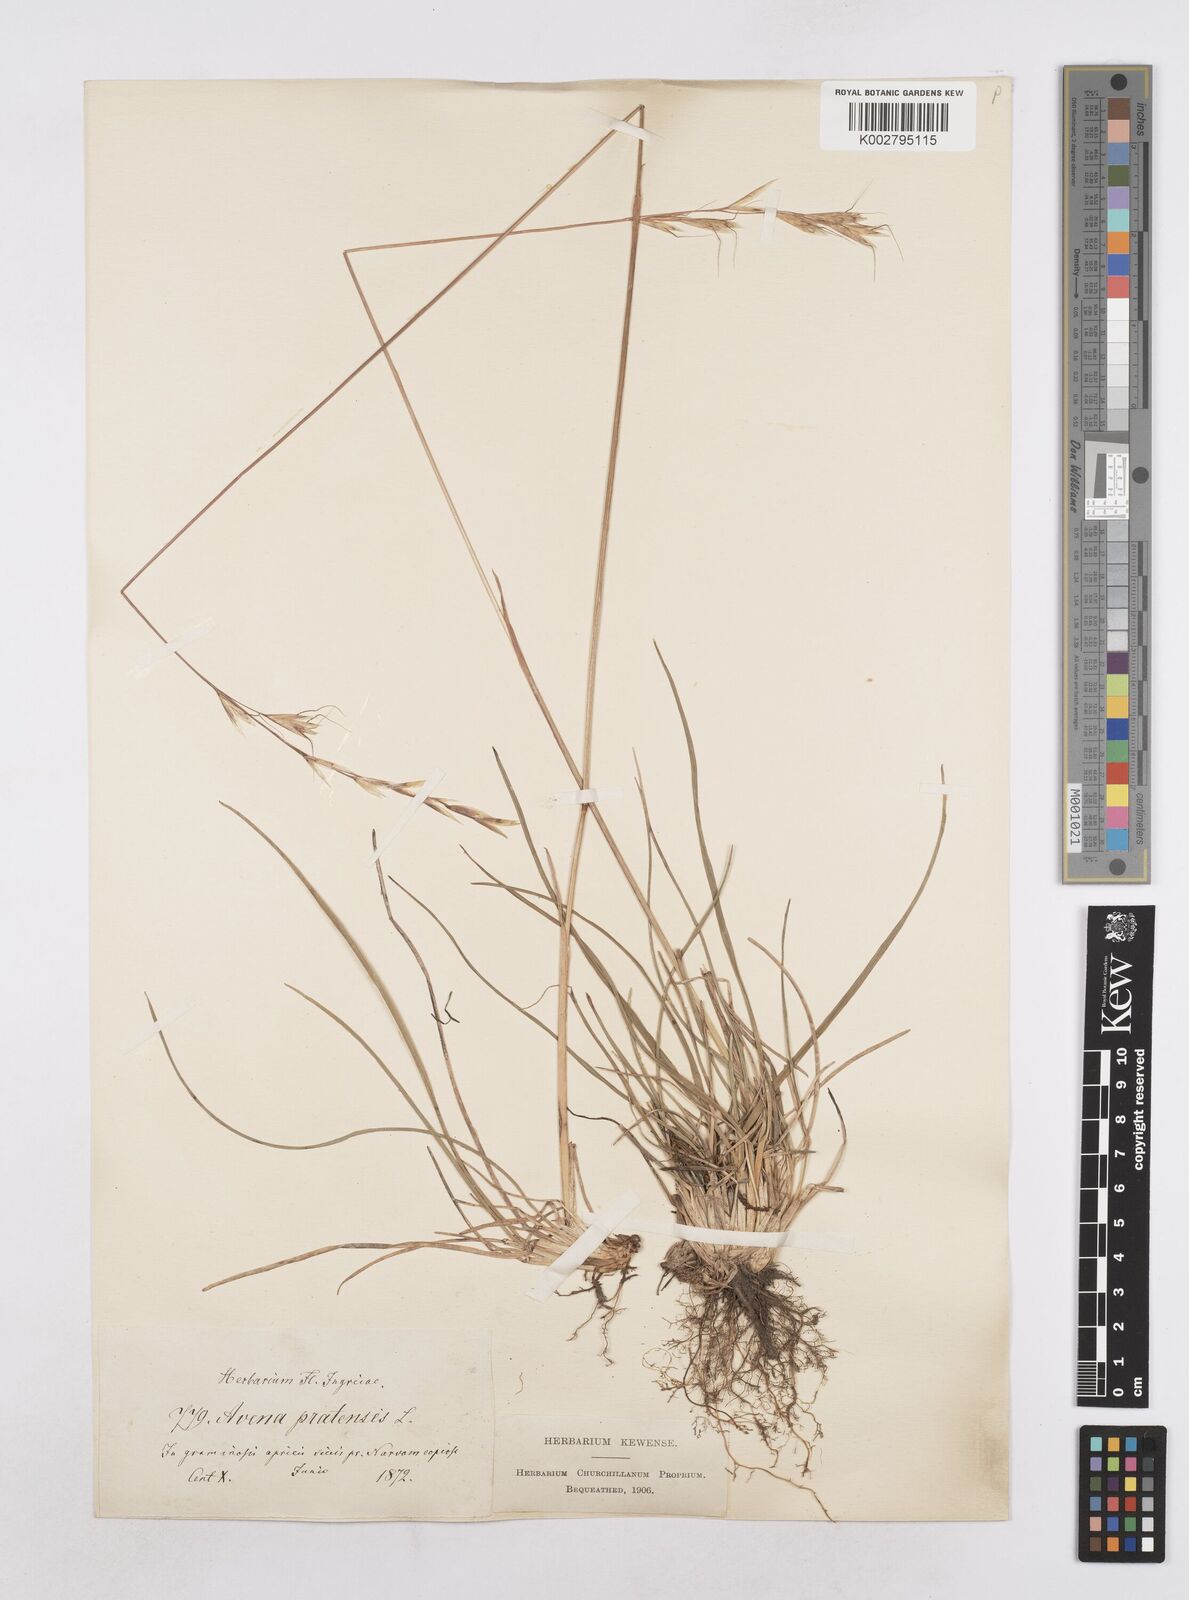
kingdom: Plantae
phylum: Tracheophyta
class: Liliopsida
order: Poales
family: Poaceae
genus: Helictochloa
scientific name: Helictochloa pratensis
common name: Meadow oat grass
